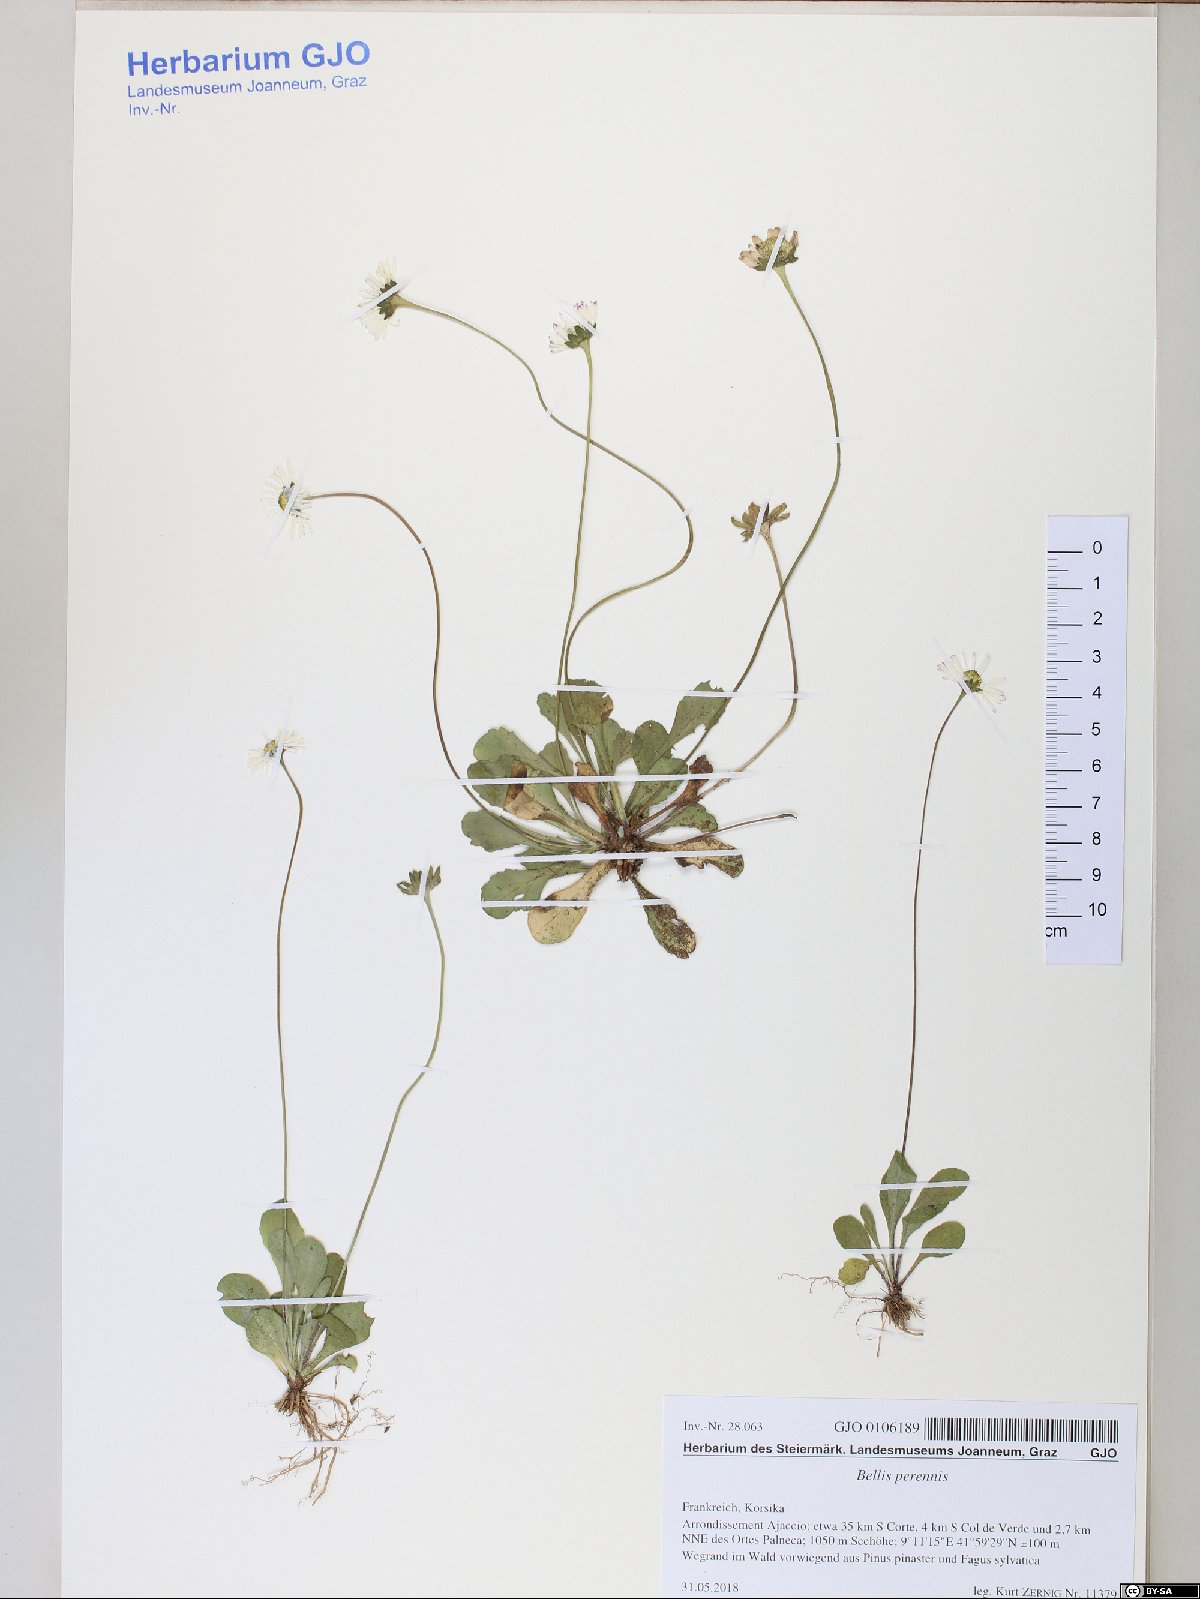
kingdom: Plantae
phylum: Tracheophyta
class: Magnoliopsida
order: Asterales
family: Asteraceae
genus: Bellis
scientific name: Bellis perennis
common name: Lawndaisy
